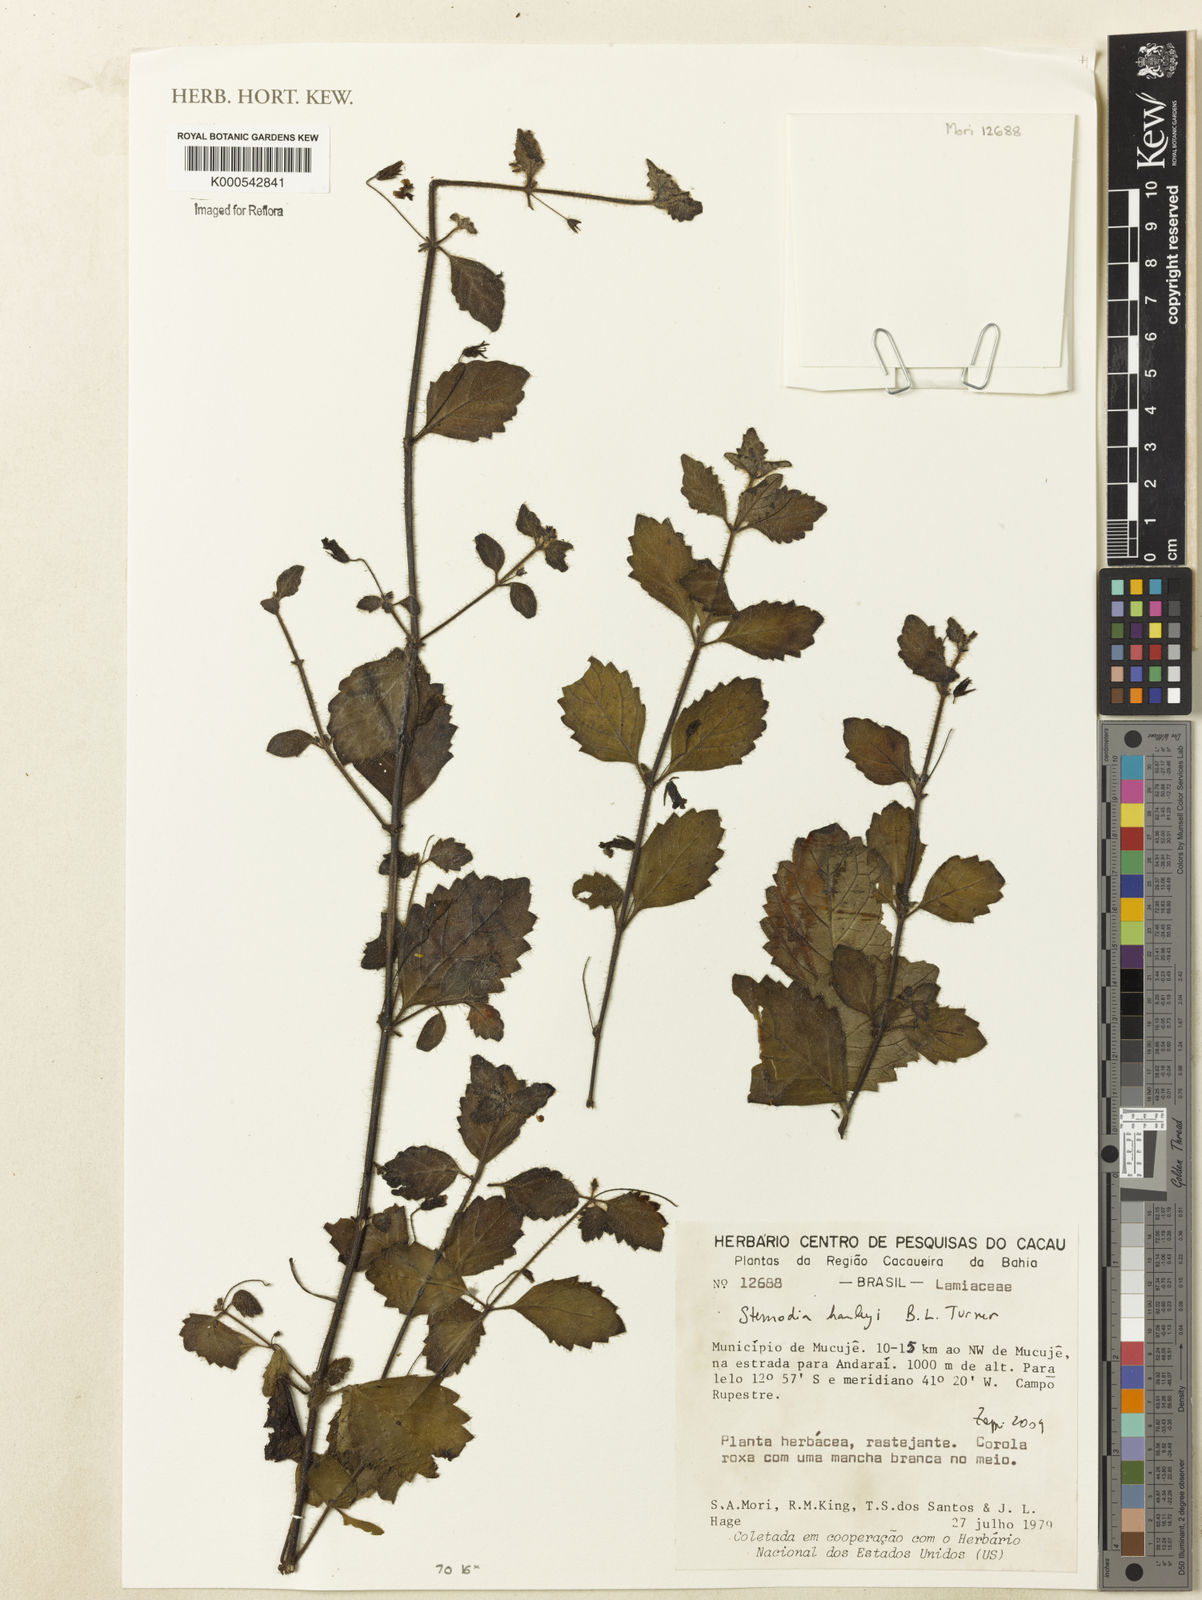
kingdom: Plantae
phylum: Tracheophyta
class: Magnoliopsida
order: Lamiales
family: Plantaginaceae
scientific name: Plantaginaceae
